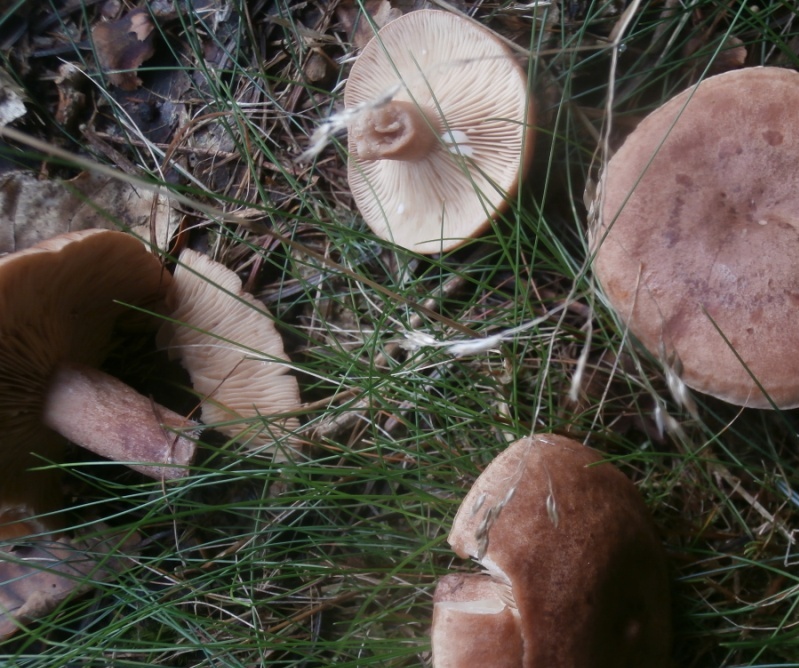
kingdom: Fungi
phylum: Basidiomycota
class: Agaricomycetes
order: Russulales
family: Russulaceae
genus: Lactarius
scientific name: Lactarius quietus
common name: ege-mælkehat
